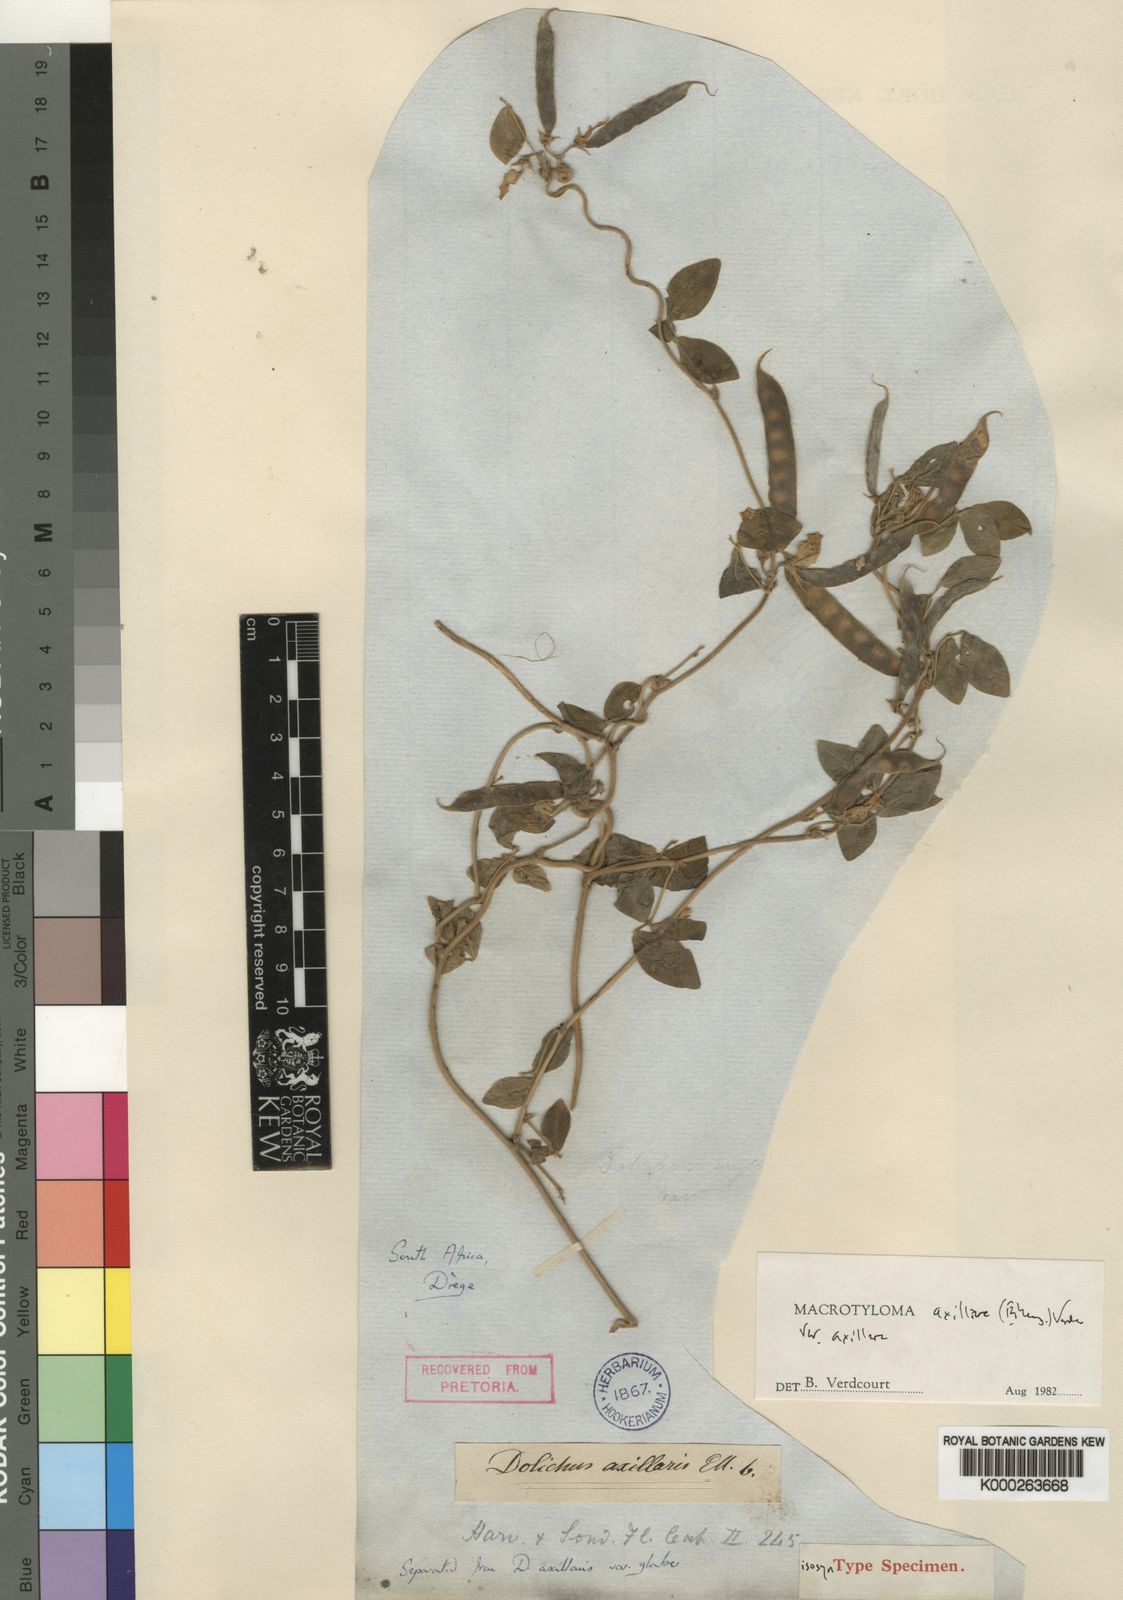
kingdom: Plantae
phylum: Tracheophyta
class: Magnoliopsida
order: Fabales
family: Fabaceae
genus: Macrotyloma
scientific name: Macrotyloma axillare
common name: Perennial horsegram
